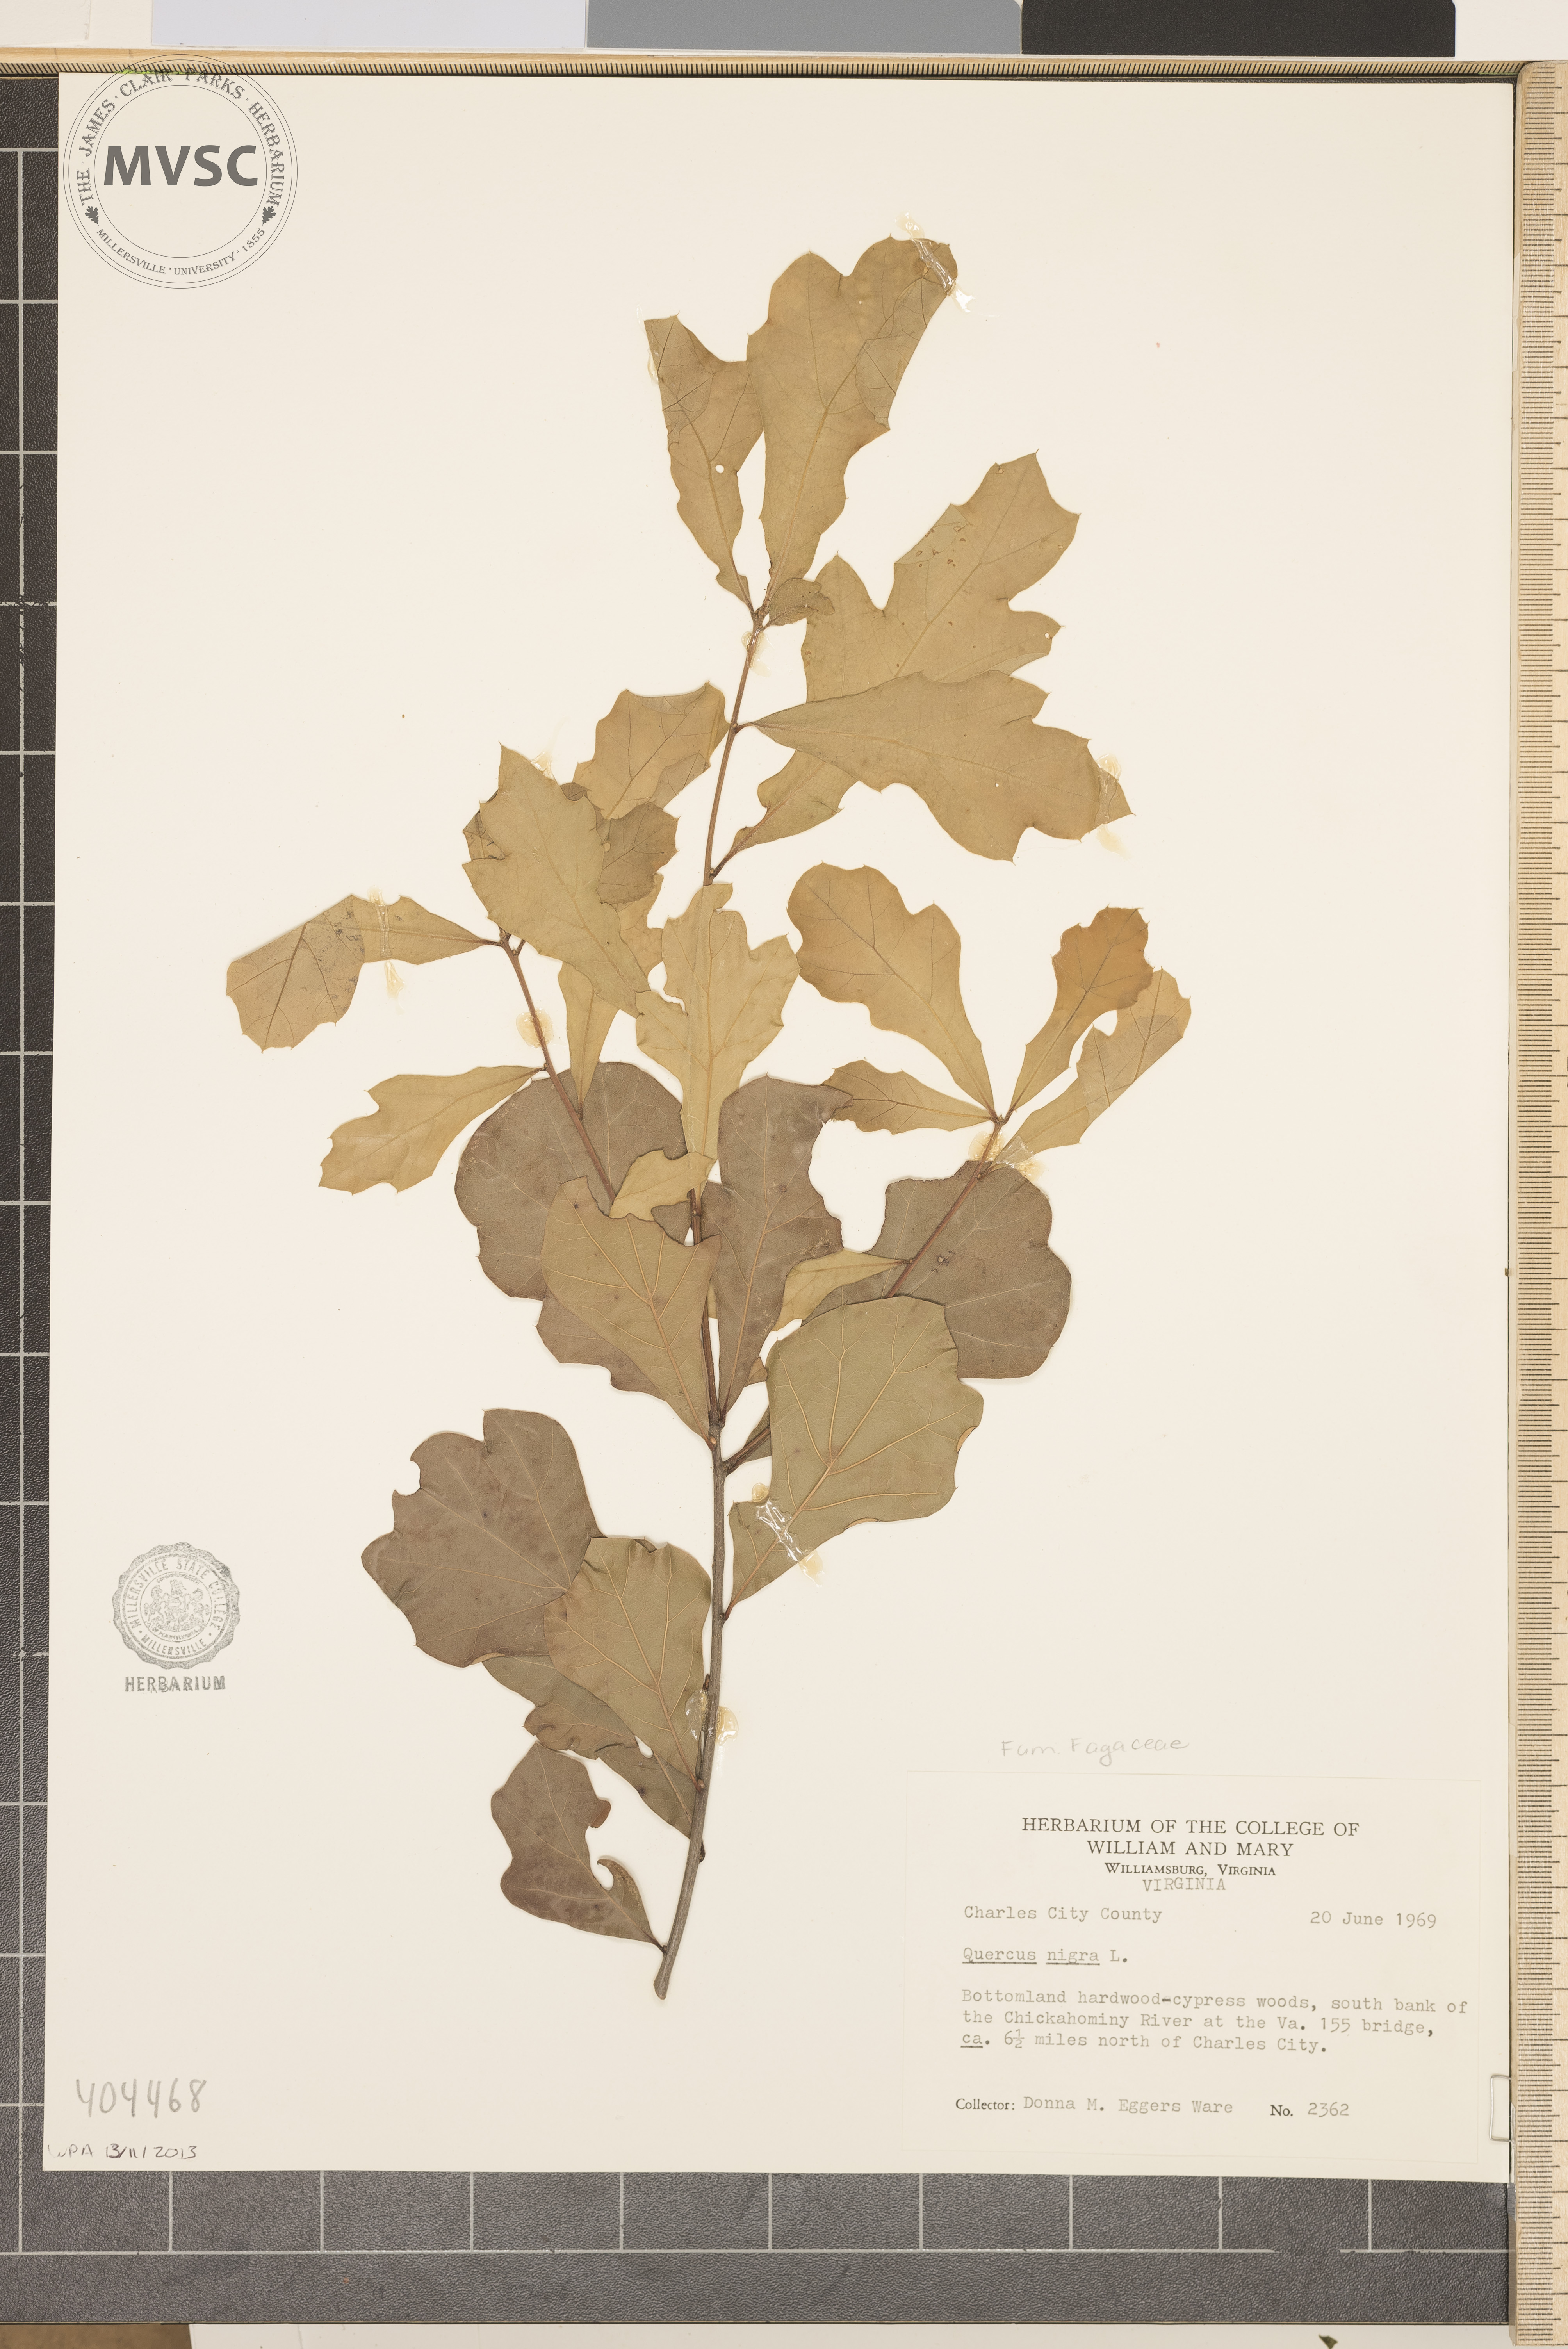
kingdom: Plantae
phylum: Tracheophyta
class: Magnoliopsida
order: Fagales
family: Fagaceae
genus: Quercus
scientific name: Quercus nigra
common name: Water oak
